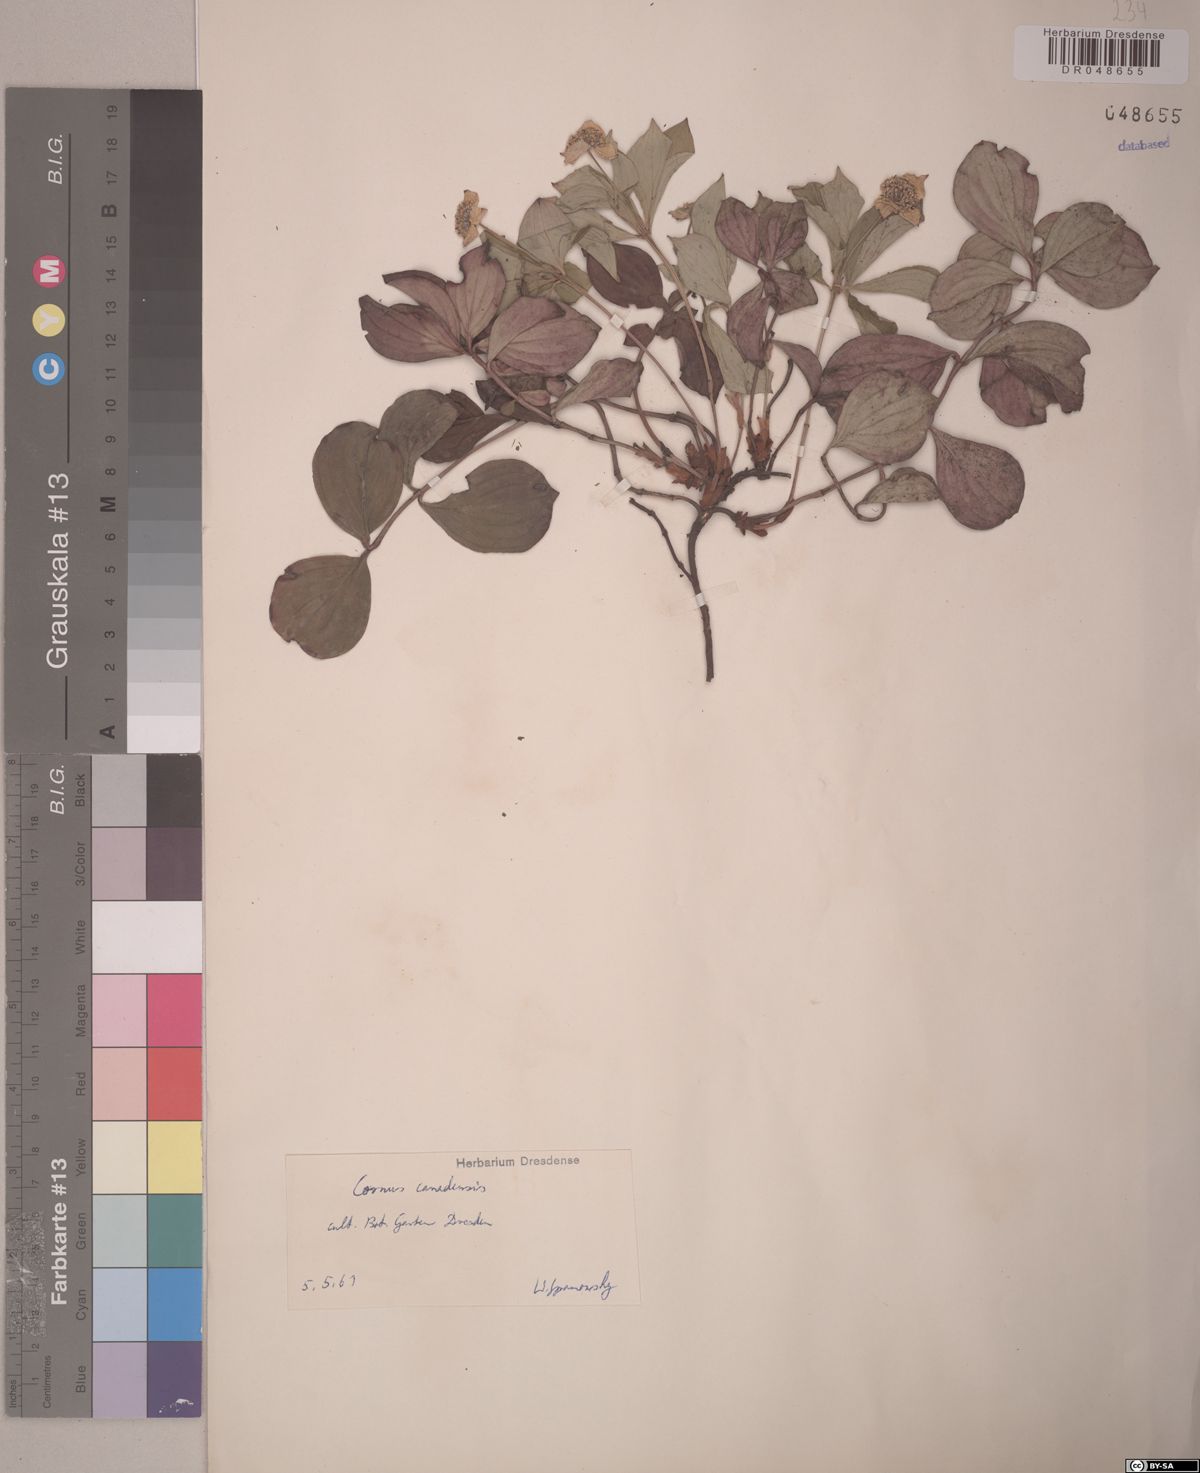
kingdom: Plantae
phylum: Tracheophyta
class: Magnoliopsida
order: Cornales
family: Cornaceae
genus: Cornus
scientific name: Cornus canadensis
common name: Creeping dogwood
